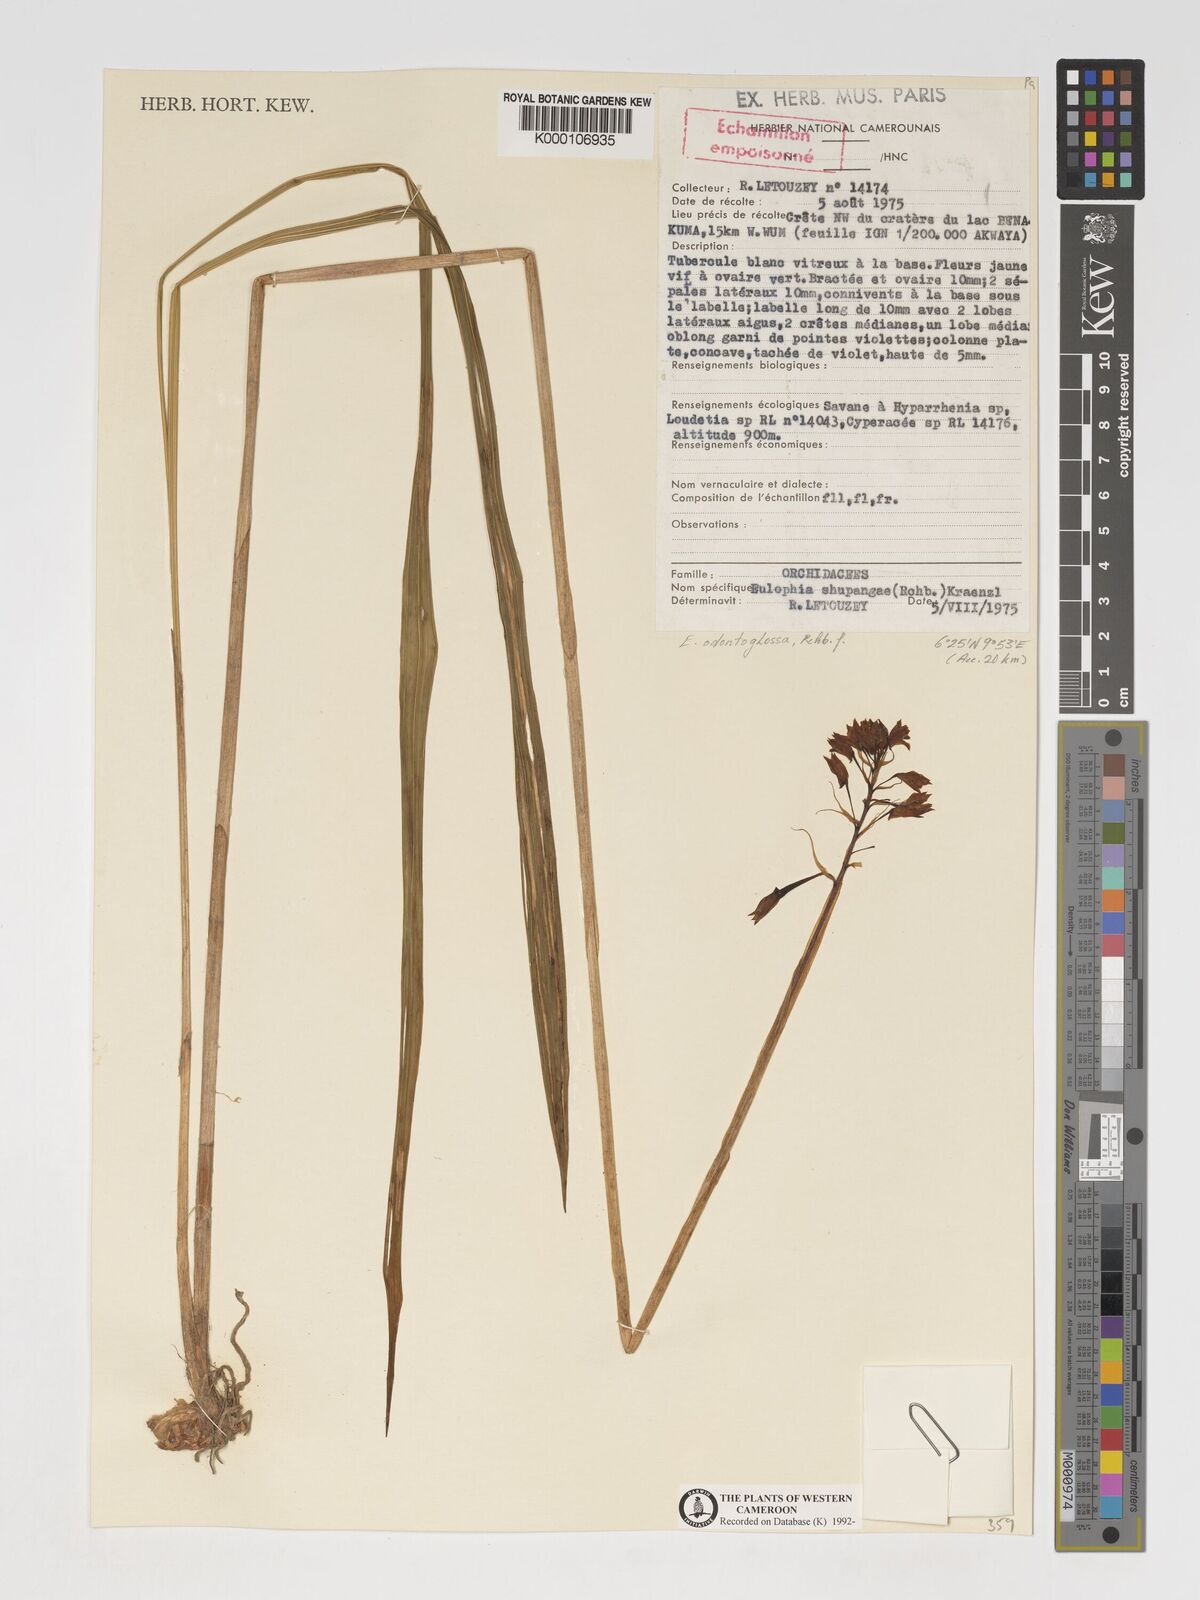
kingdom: Plantae
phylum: Tracheophyta
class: Liliopsida
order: Asparagales
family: Orchidaceae
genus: Eulophia
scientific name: Eulophia odontoglossa
